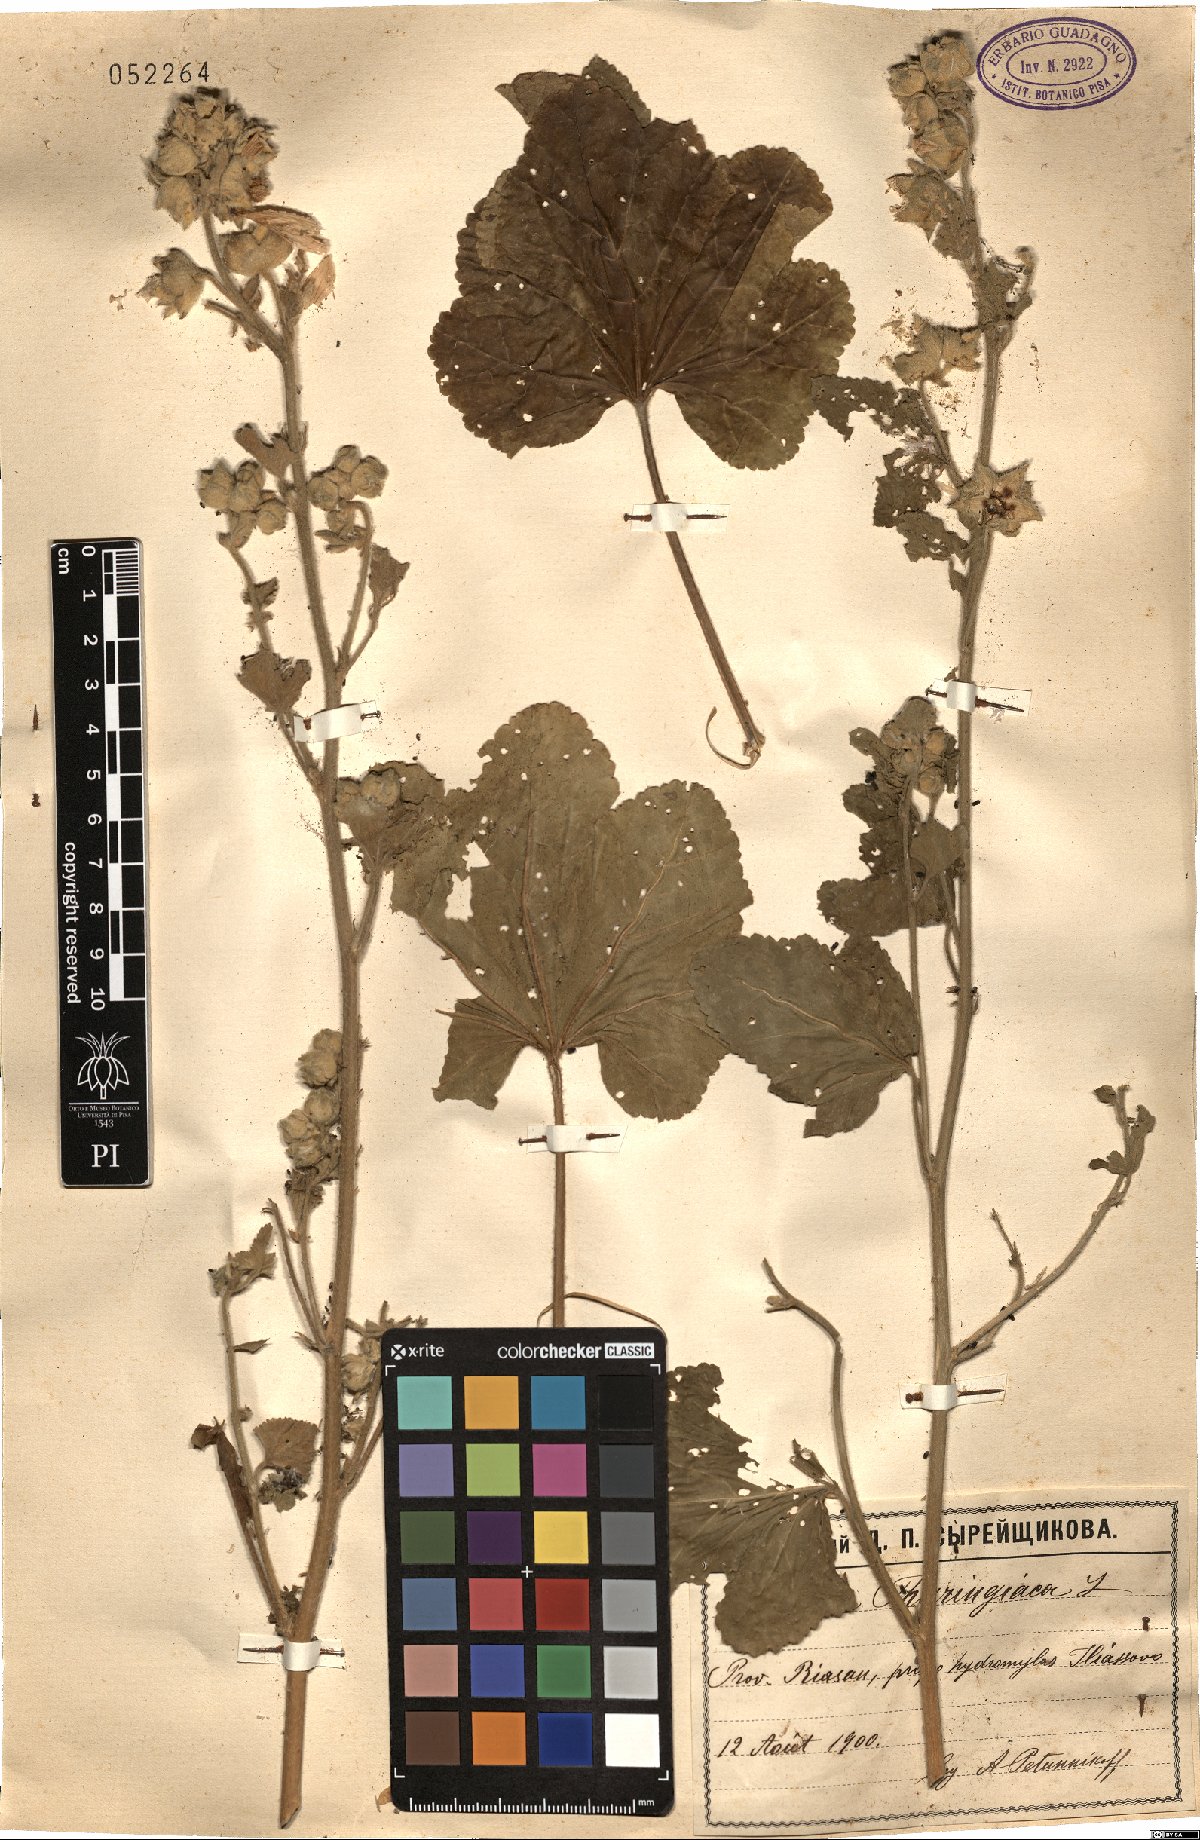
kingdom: Plantae
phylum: Tracheophyta
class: Magnoliopsida
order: Malvales
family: Malvaceae
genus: Malva
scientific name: Malva thuringiaca
